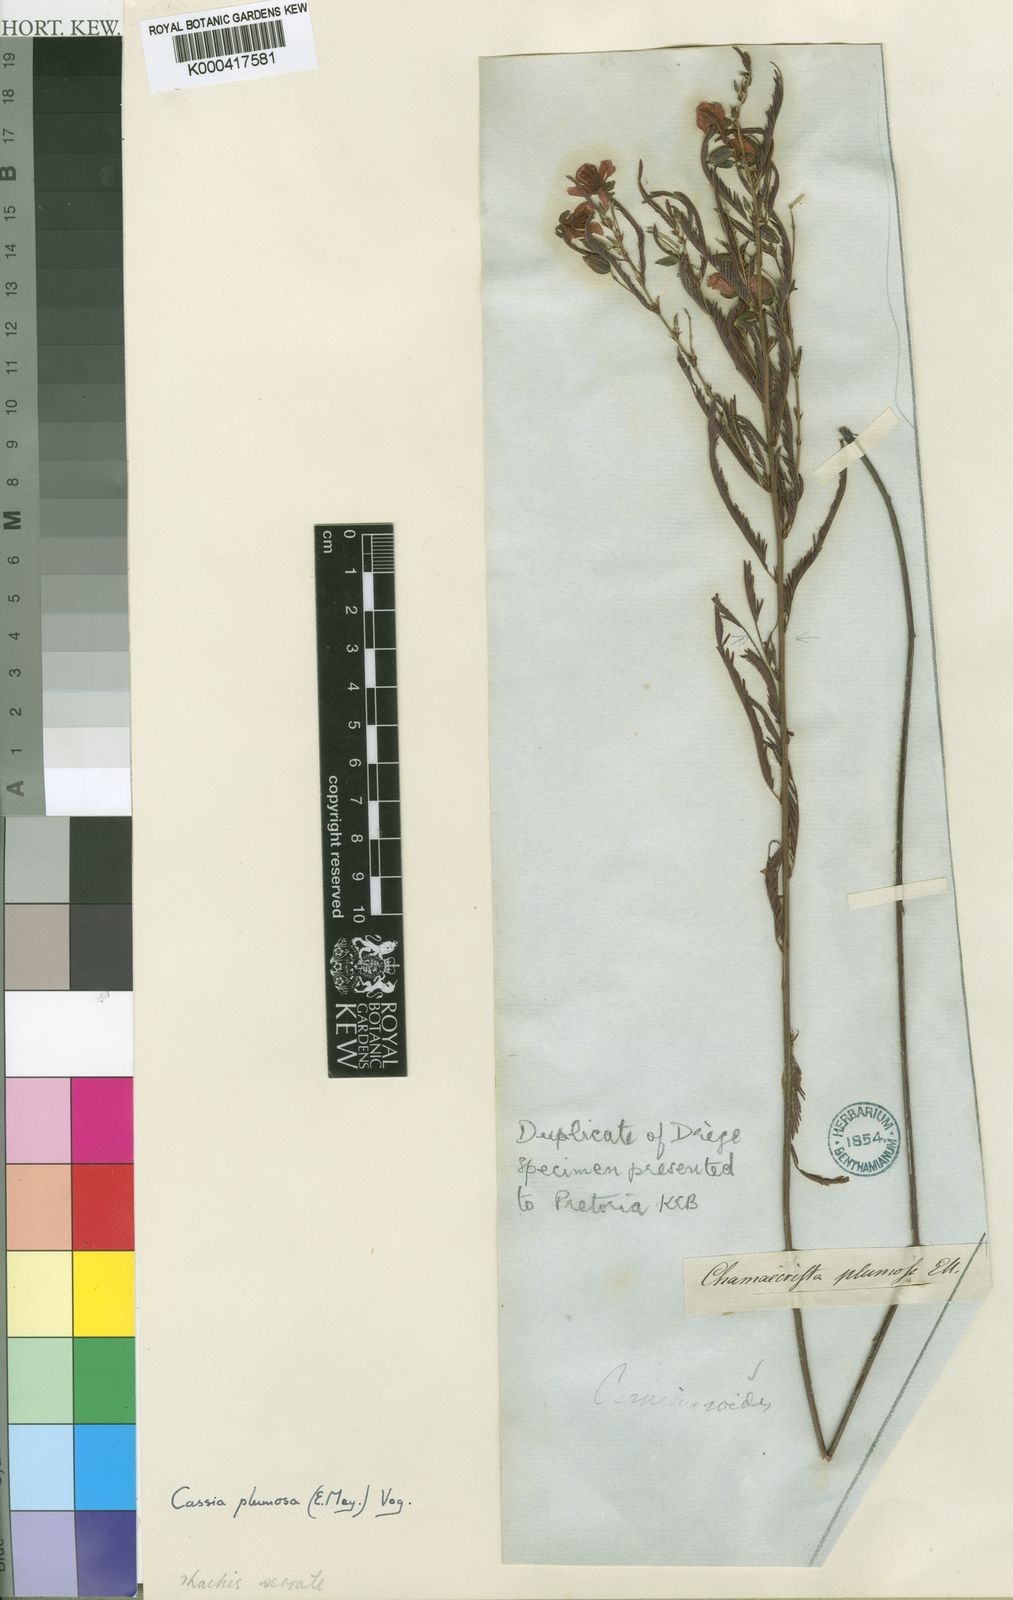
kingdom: Plantae
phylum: Tracheophyta
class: Magnoliopsida
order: Fabales
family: Fabaceae
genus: Chamaecrista
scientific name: Chamaecrista plumosa
